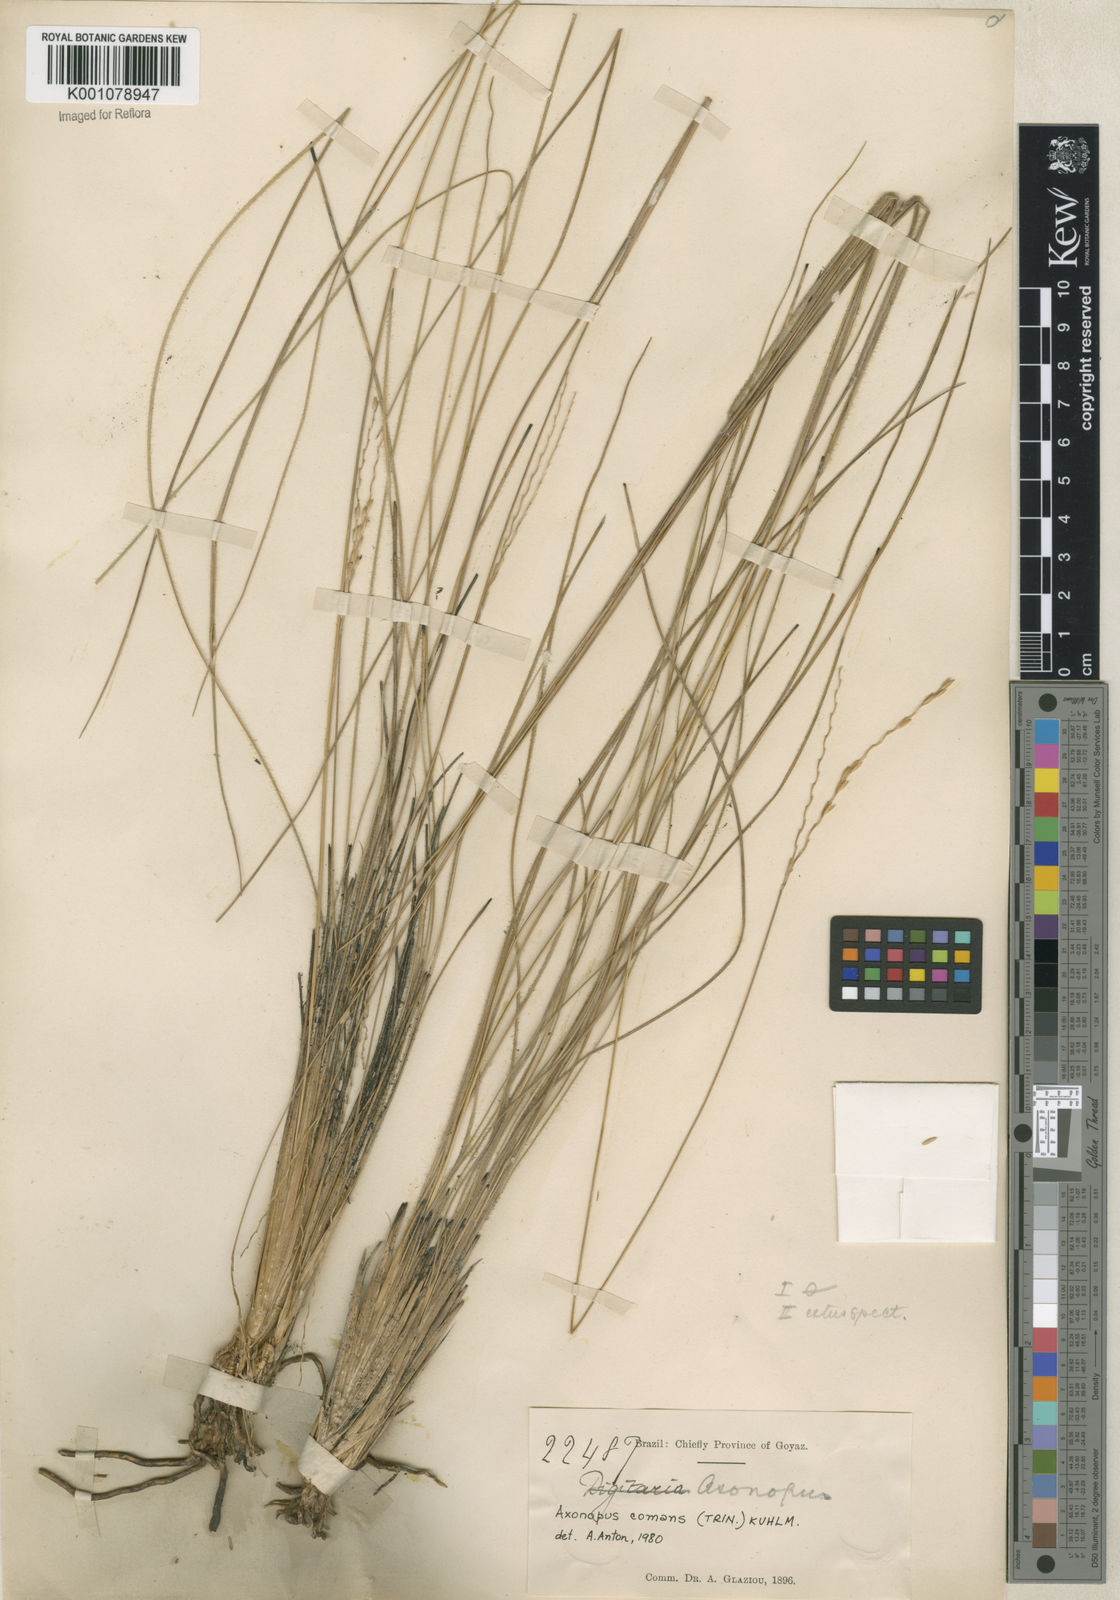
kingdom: Plantae
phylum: Tracheophyta
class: Liliopsida
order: Poales
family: Poaceae
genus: Axonopus
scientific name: Axonopus
